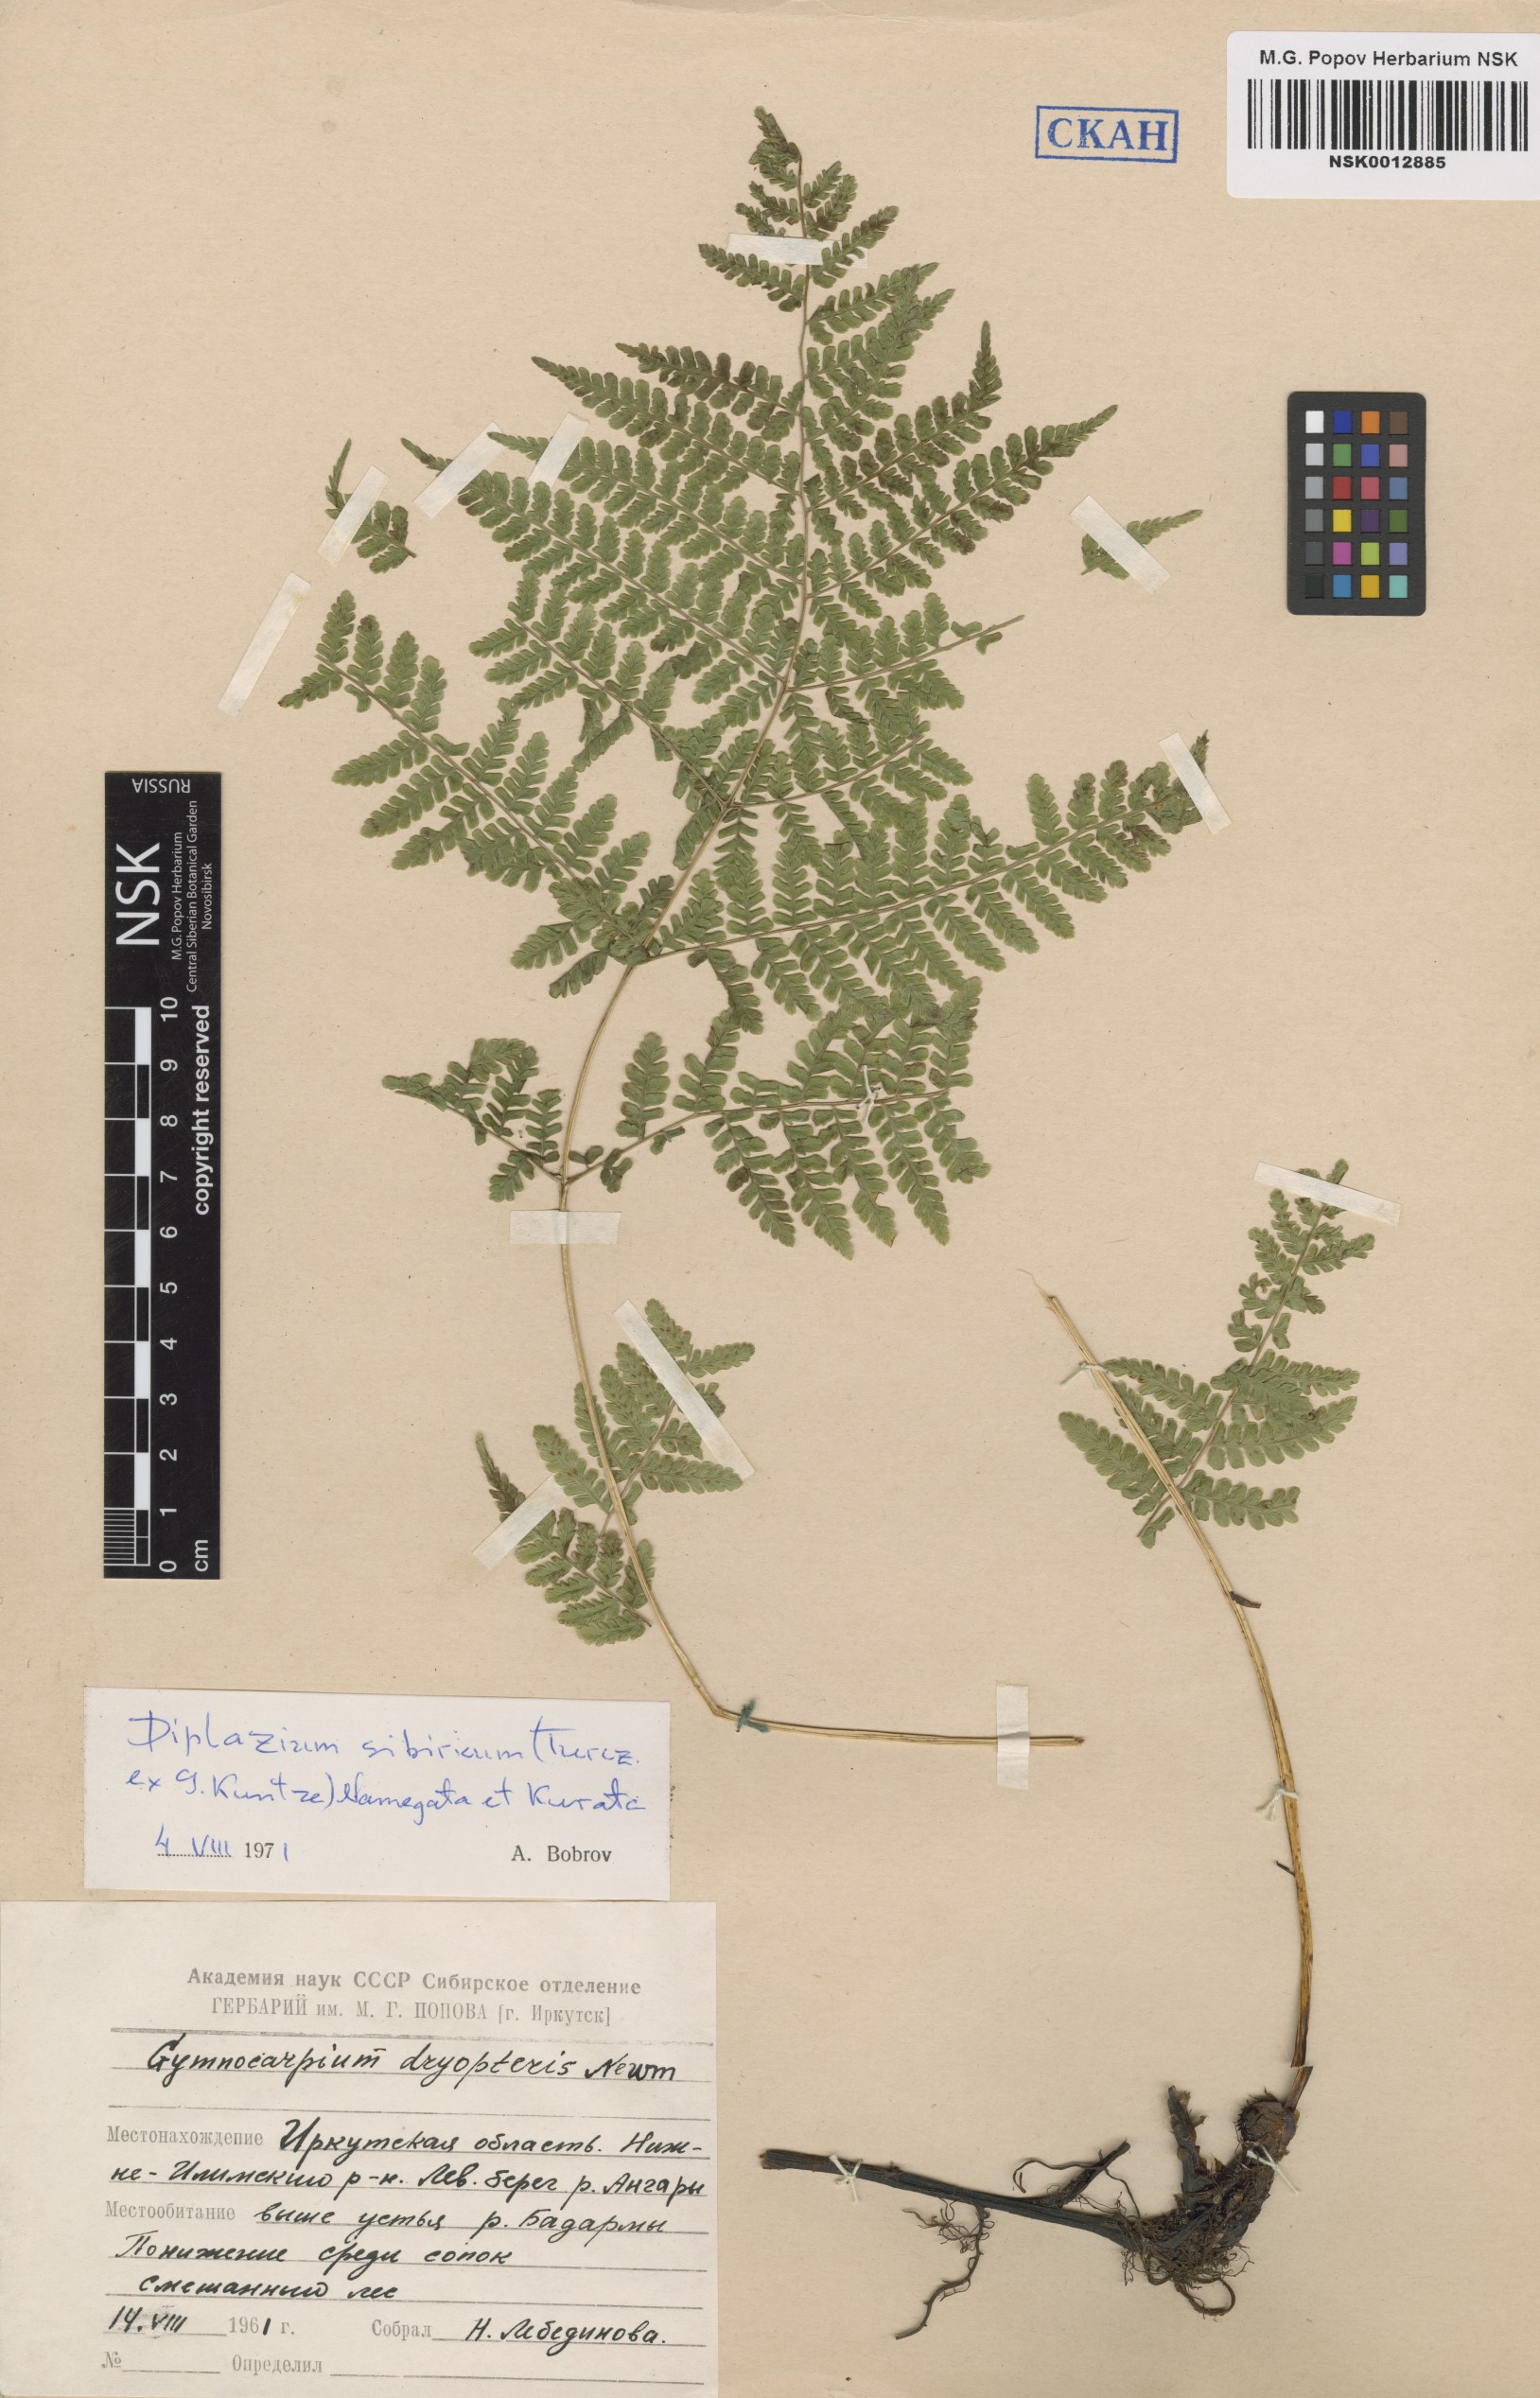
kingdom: Plantae
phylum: Tracheophyta
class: Polypodiopsida
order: Polypodiales
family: Athyriaceae
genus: Diplazium
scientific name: Diplazium sibiricum
